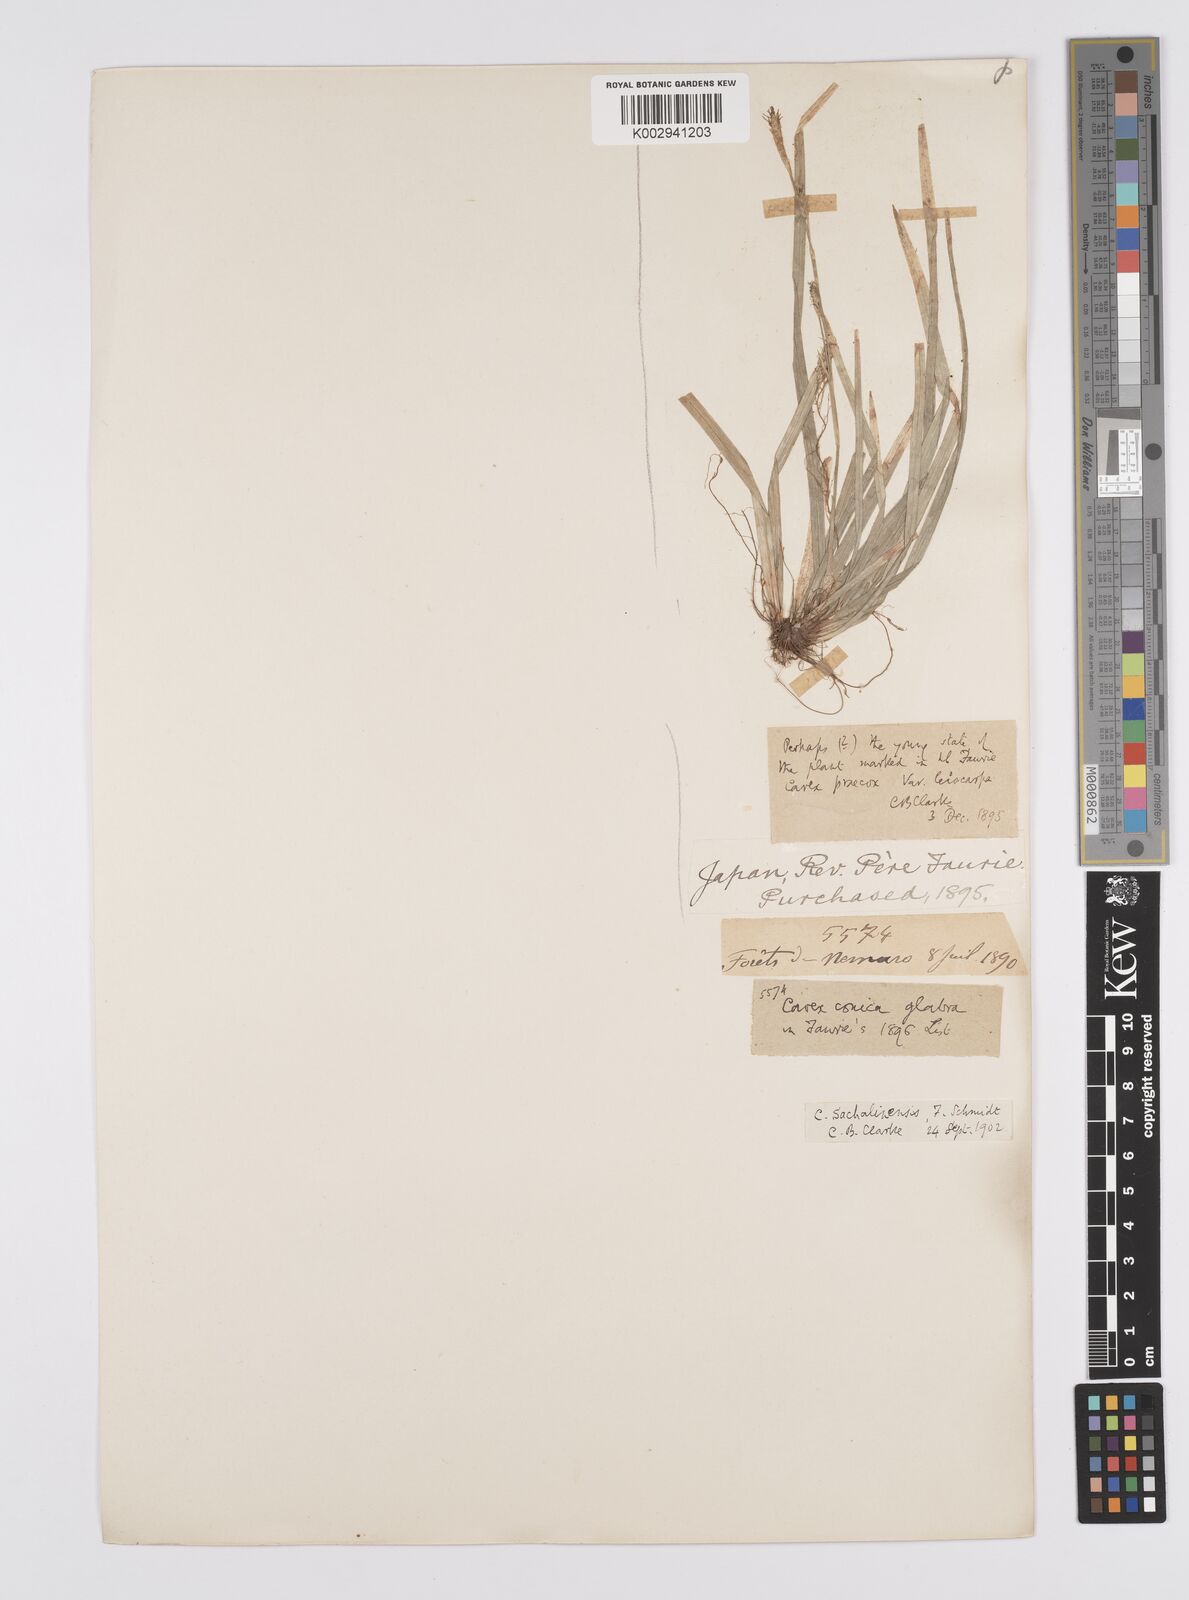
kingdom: Plantae
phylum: Tracheophyta
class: Liliopsida
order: Poales
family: Cyperaceae
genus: Carex
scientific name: Carex pisiformis
